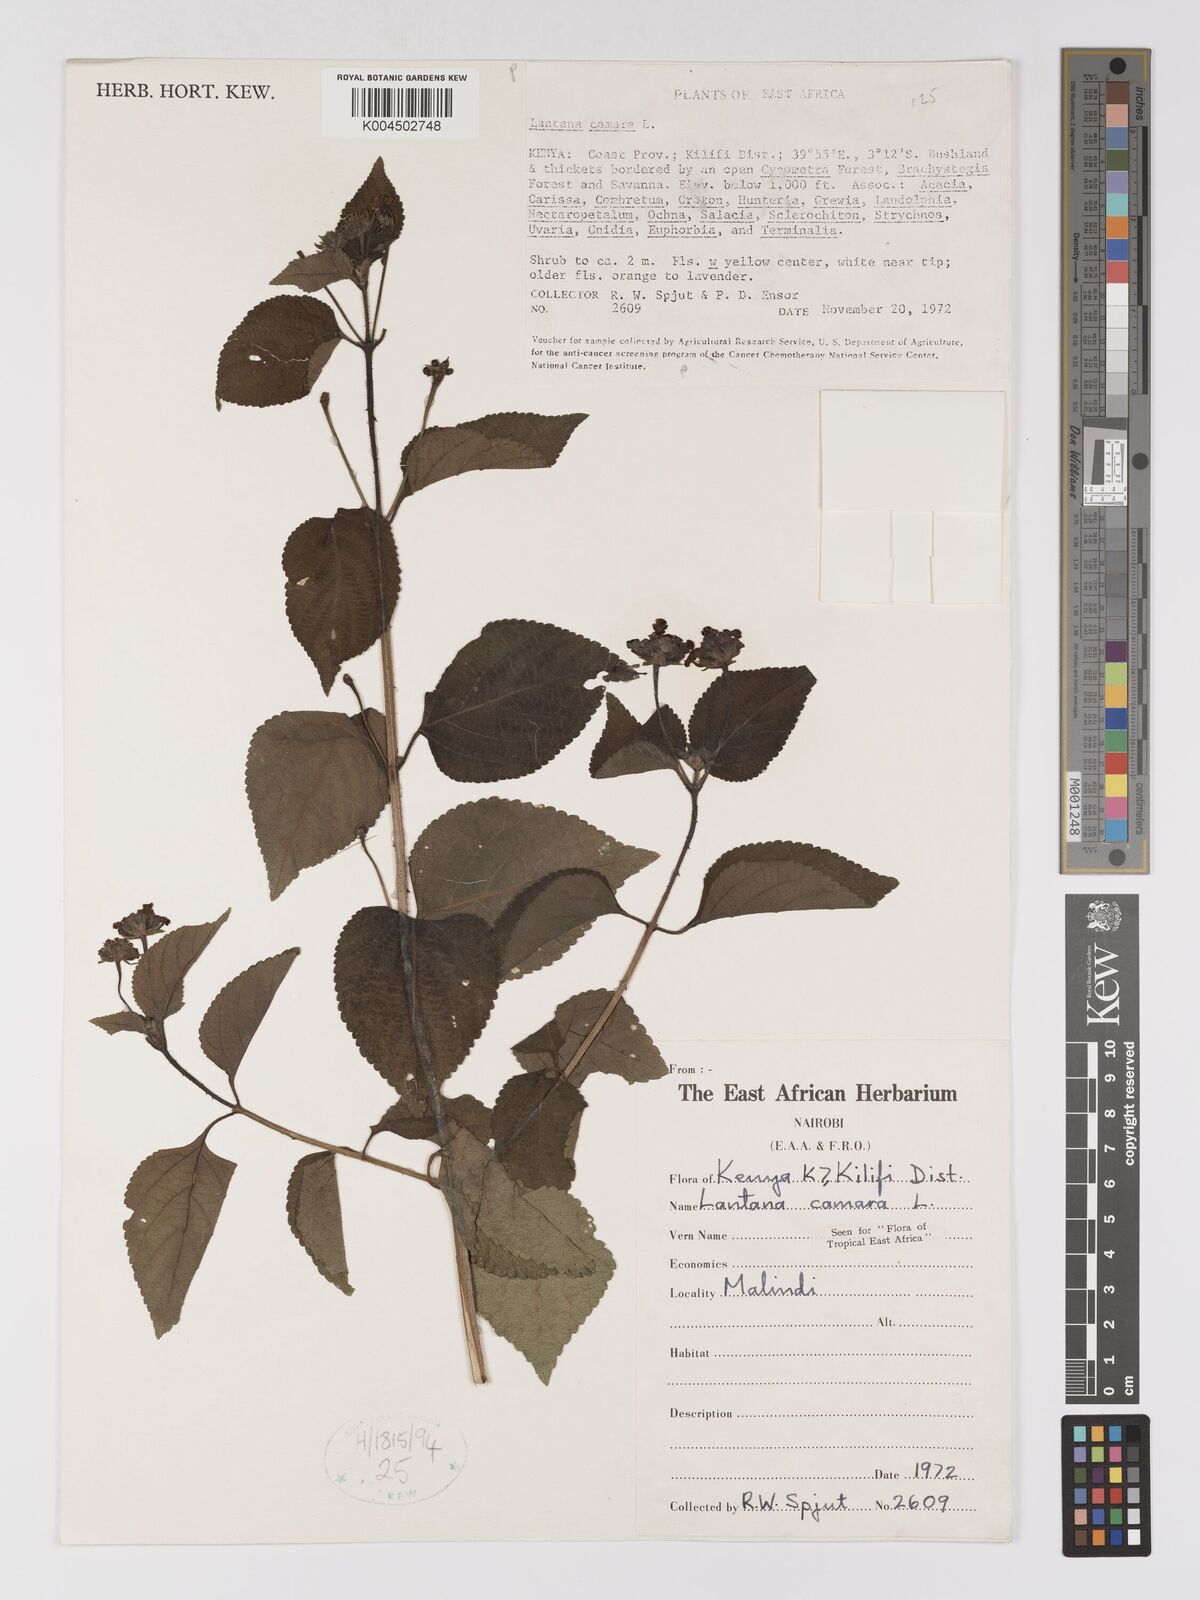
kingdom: Plantae
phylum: Tracheophyta
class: Magnoliopsida
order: Lamiales
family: Verbenaceae
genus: Lantana
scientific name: Lantana camara
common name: Lantana
